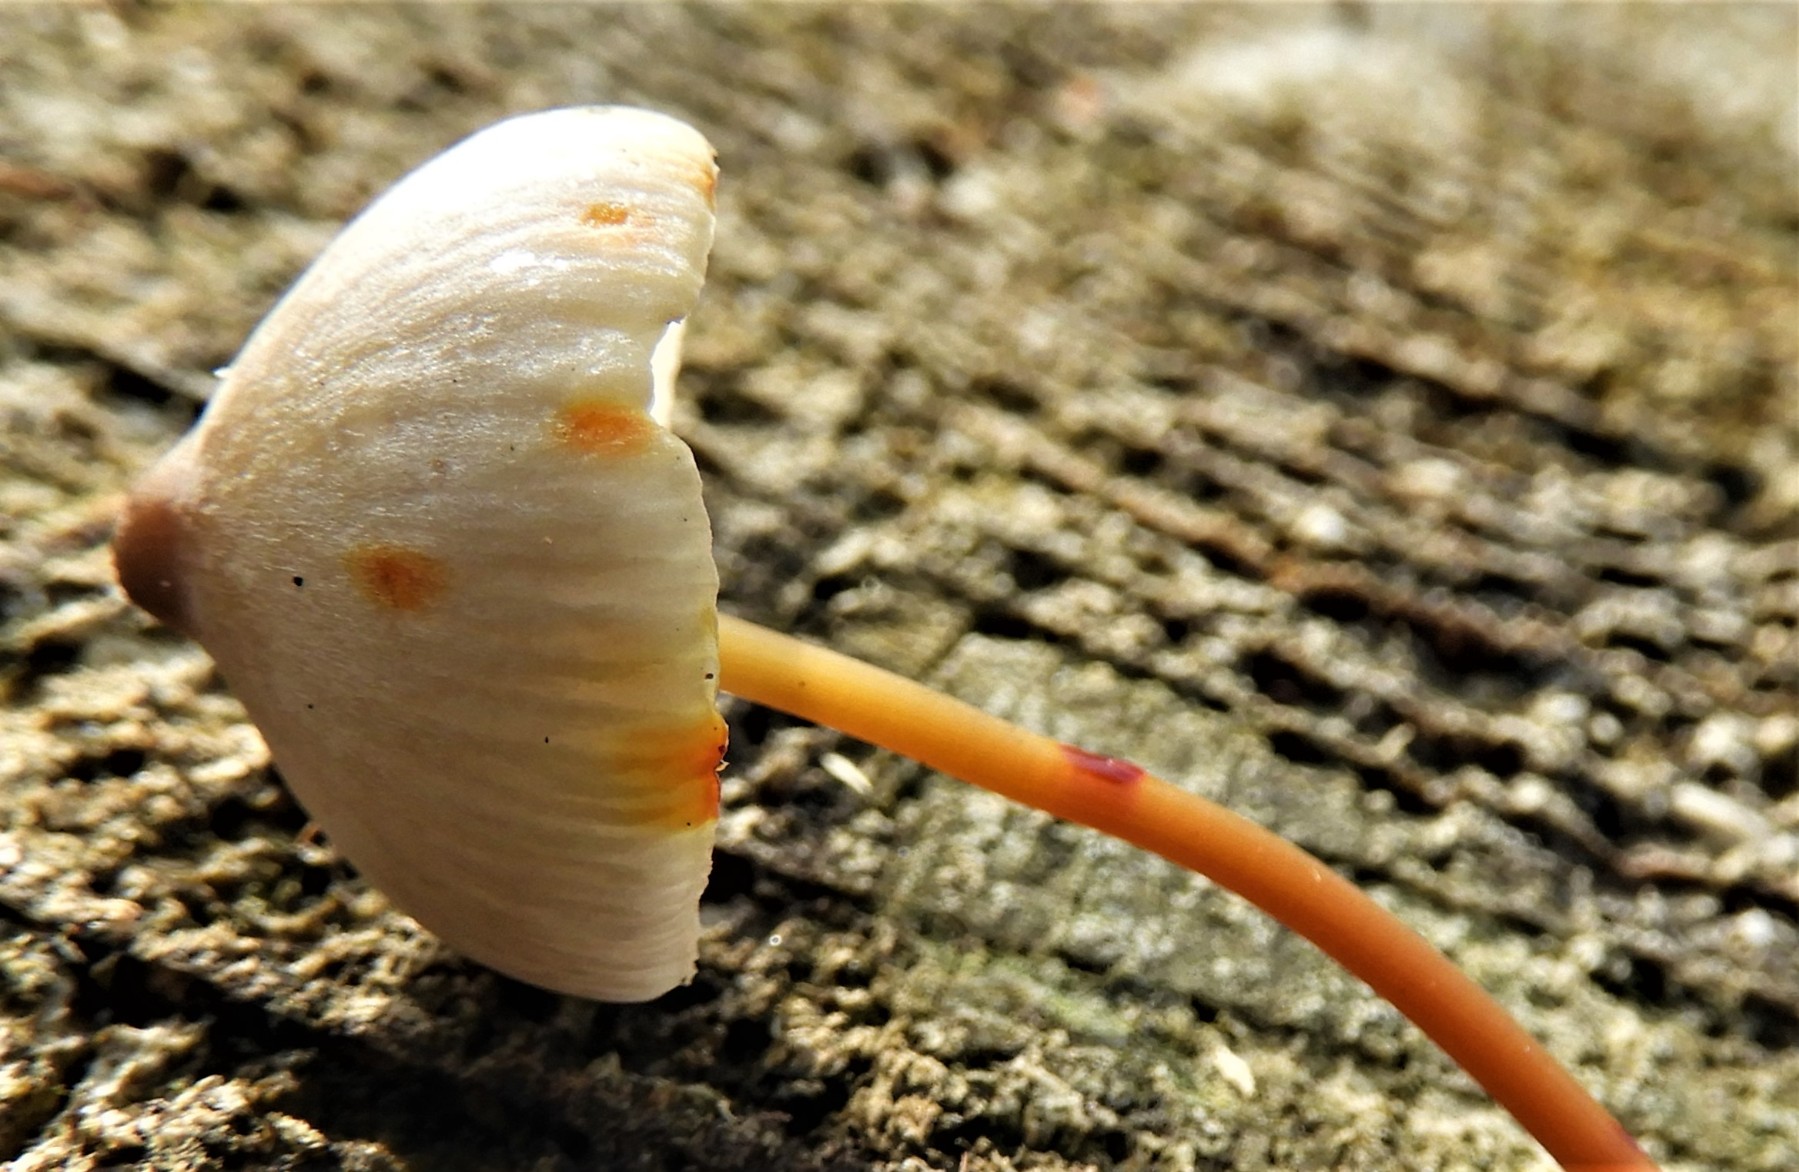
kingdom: Fungi
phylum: Basidiomycota
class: Agaricomycetes
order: Agaricales
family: Mycenaceae
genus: Mycena
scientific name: Mycena crocata
